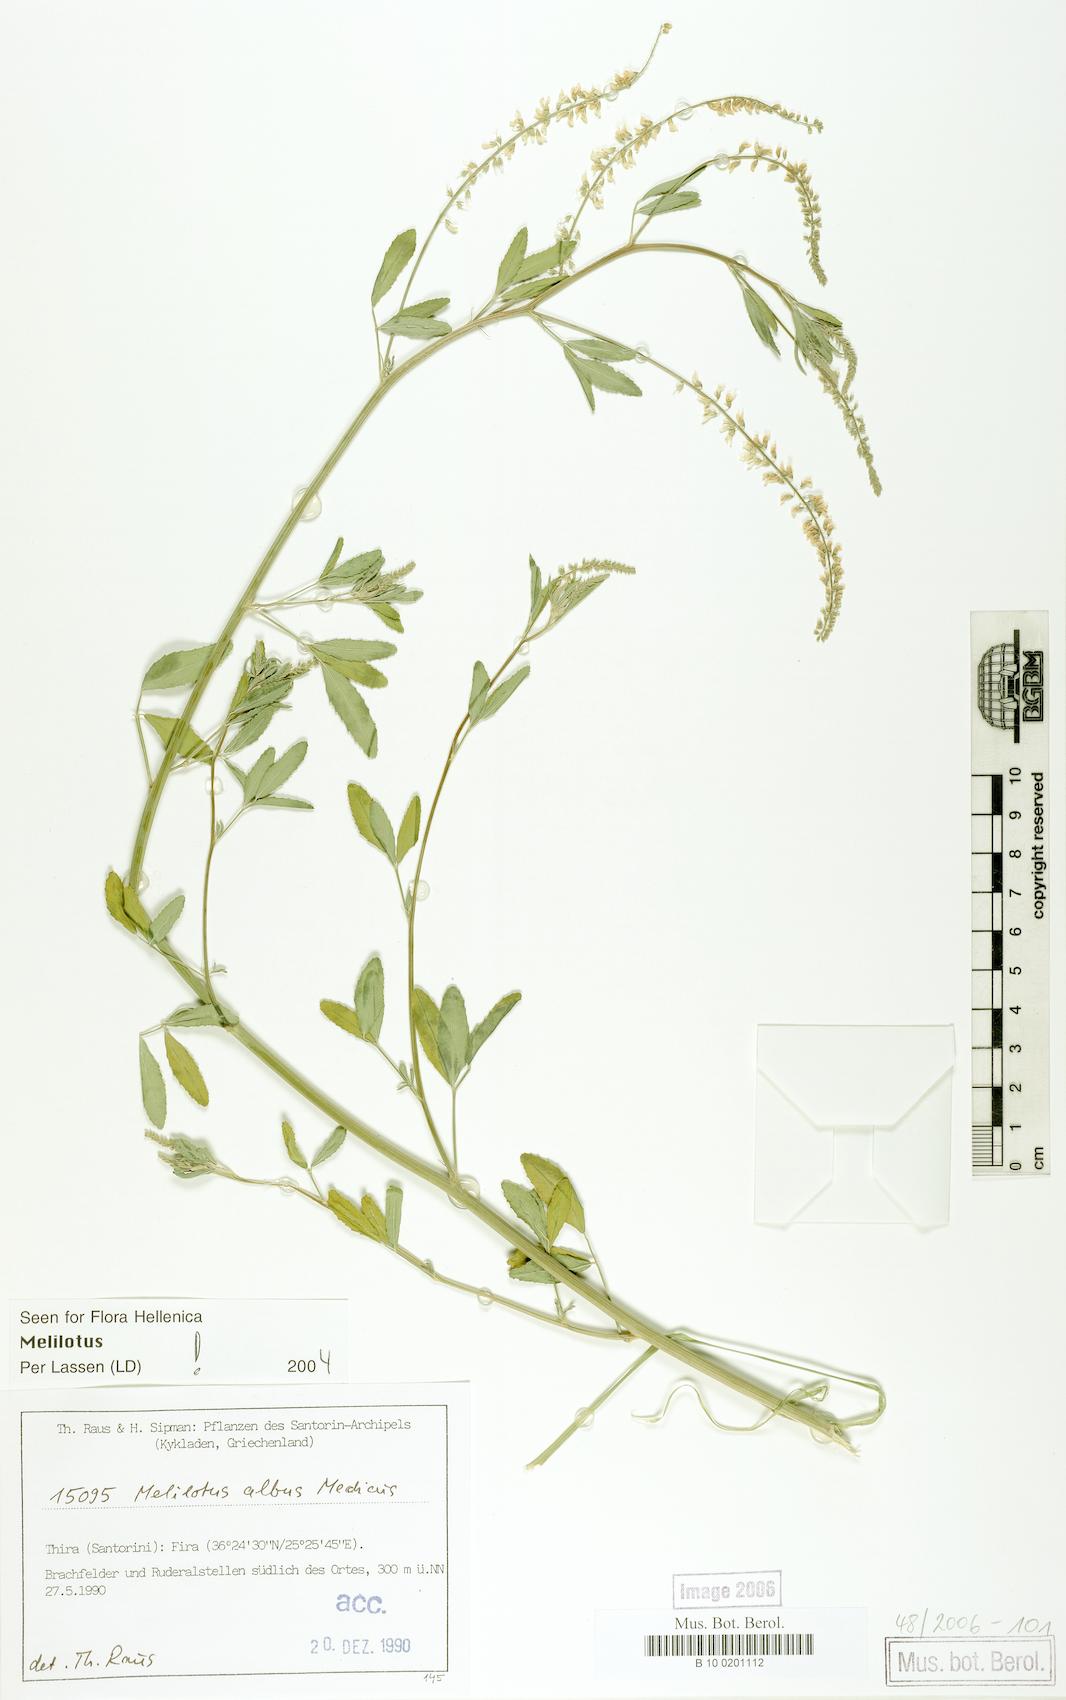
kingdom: Plantae
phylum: Tracheophyta
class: Magnoliopsida
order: Fabales
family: Fabaceae
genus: Melilotus
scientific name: Melilotus albus
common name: White melilot
